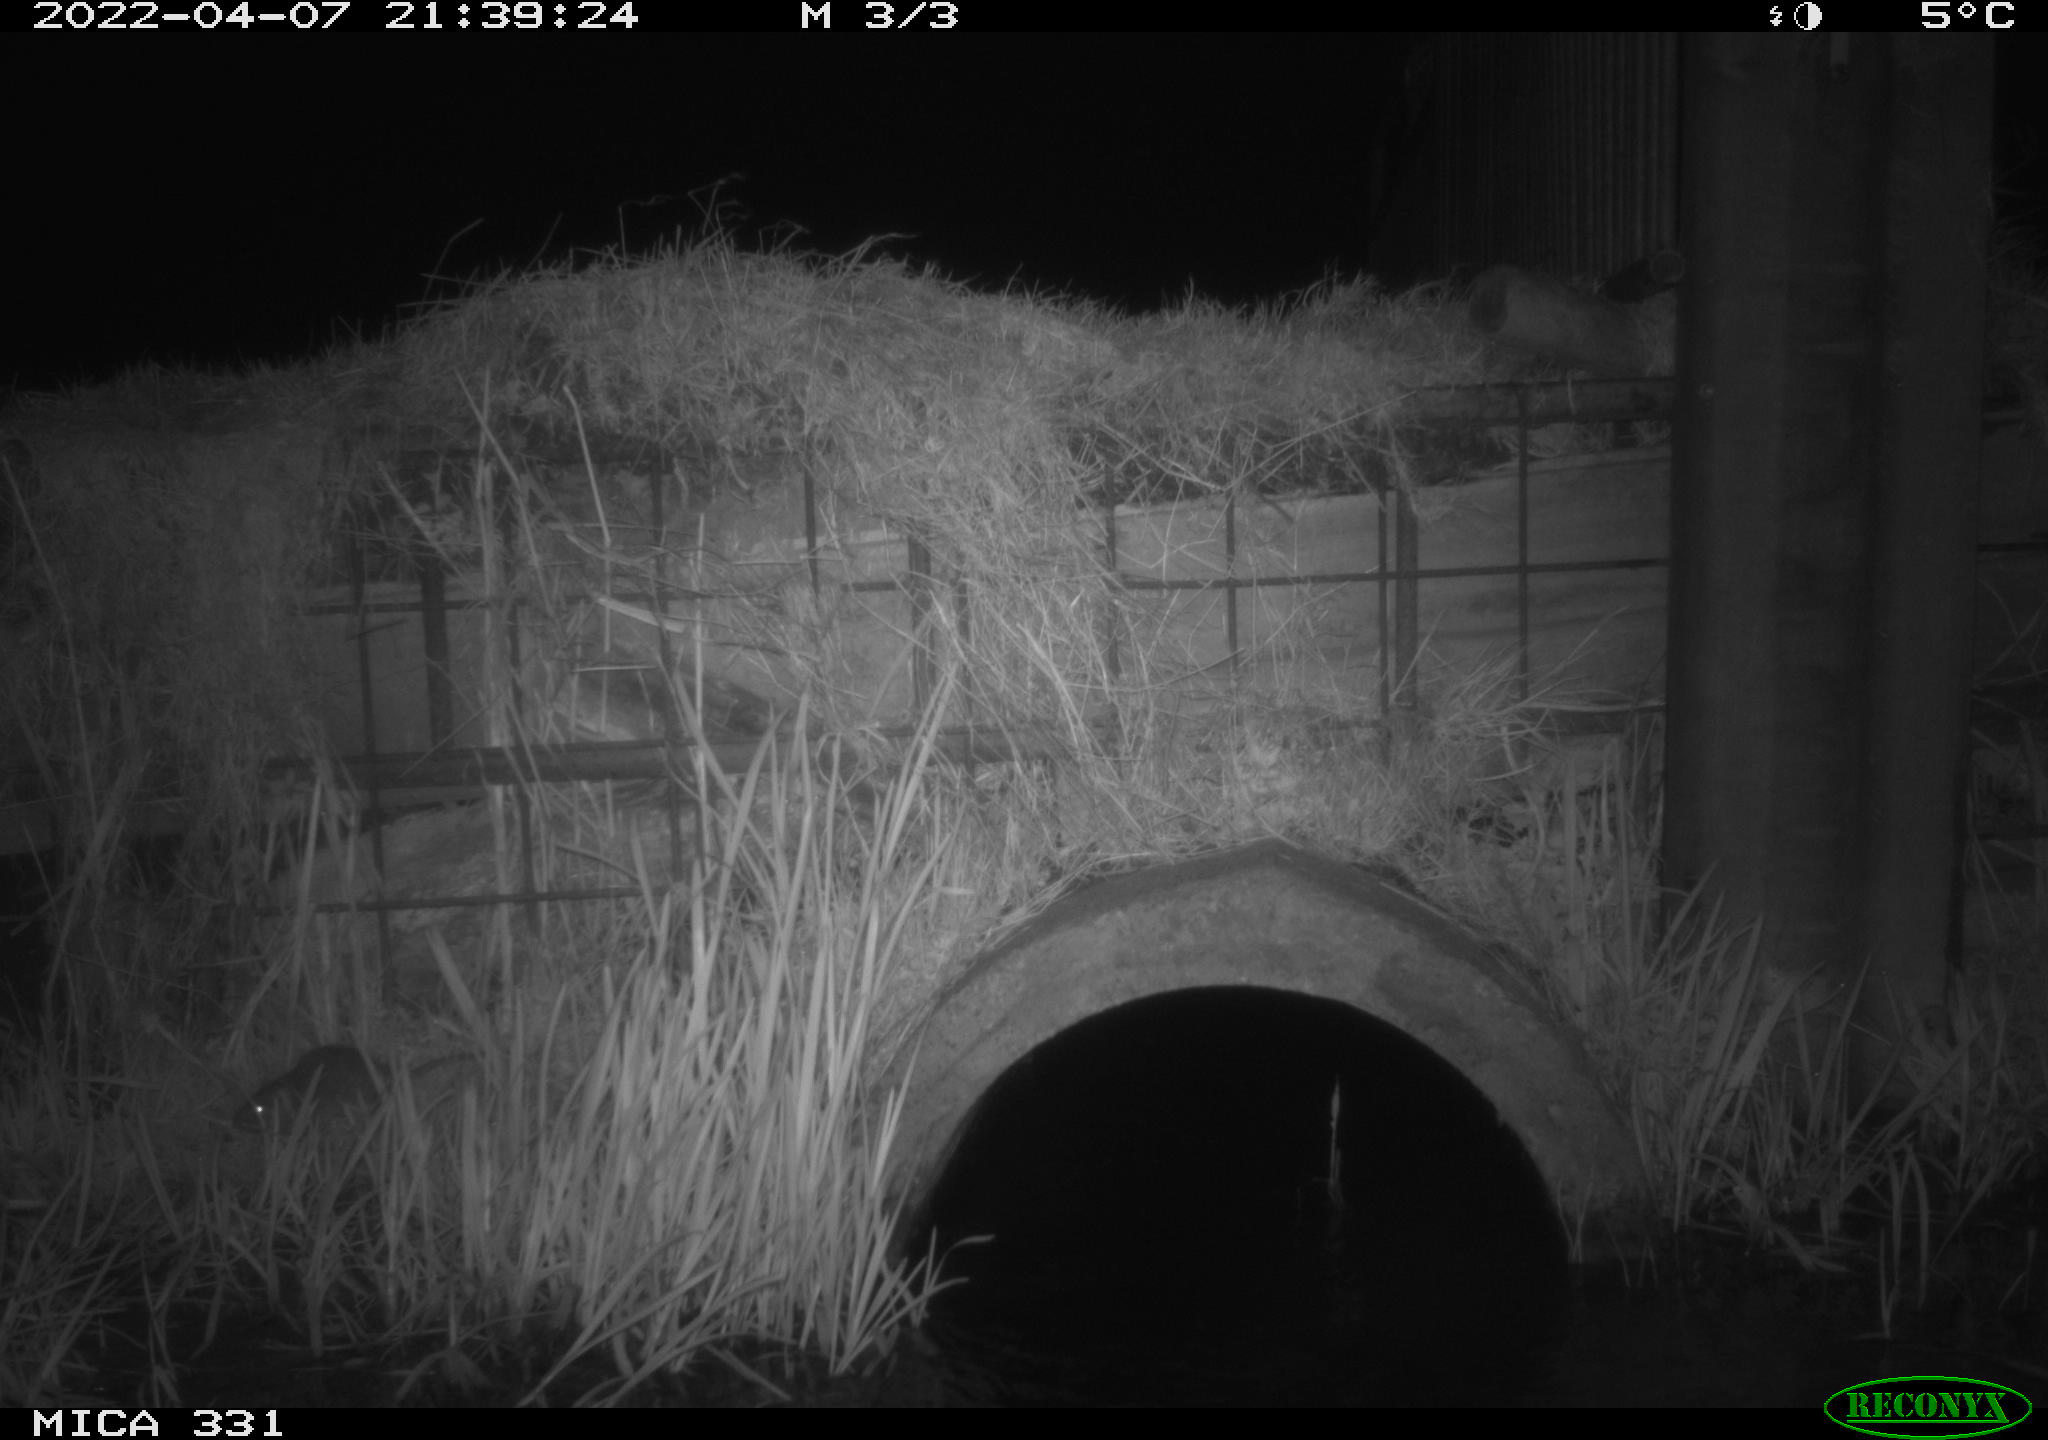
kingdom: Animalia
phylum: Chordata
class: Mammalia
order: Rodentia
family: Muridae
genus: Rattus
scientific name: Rattus norvegicus
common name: Brown rat
